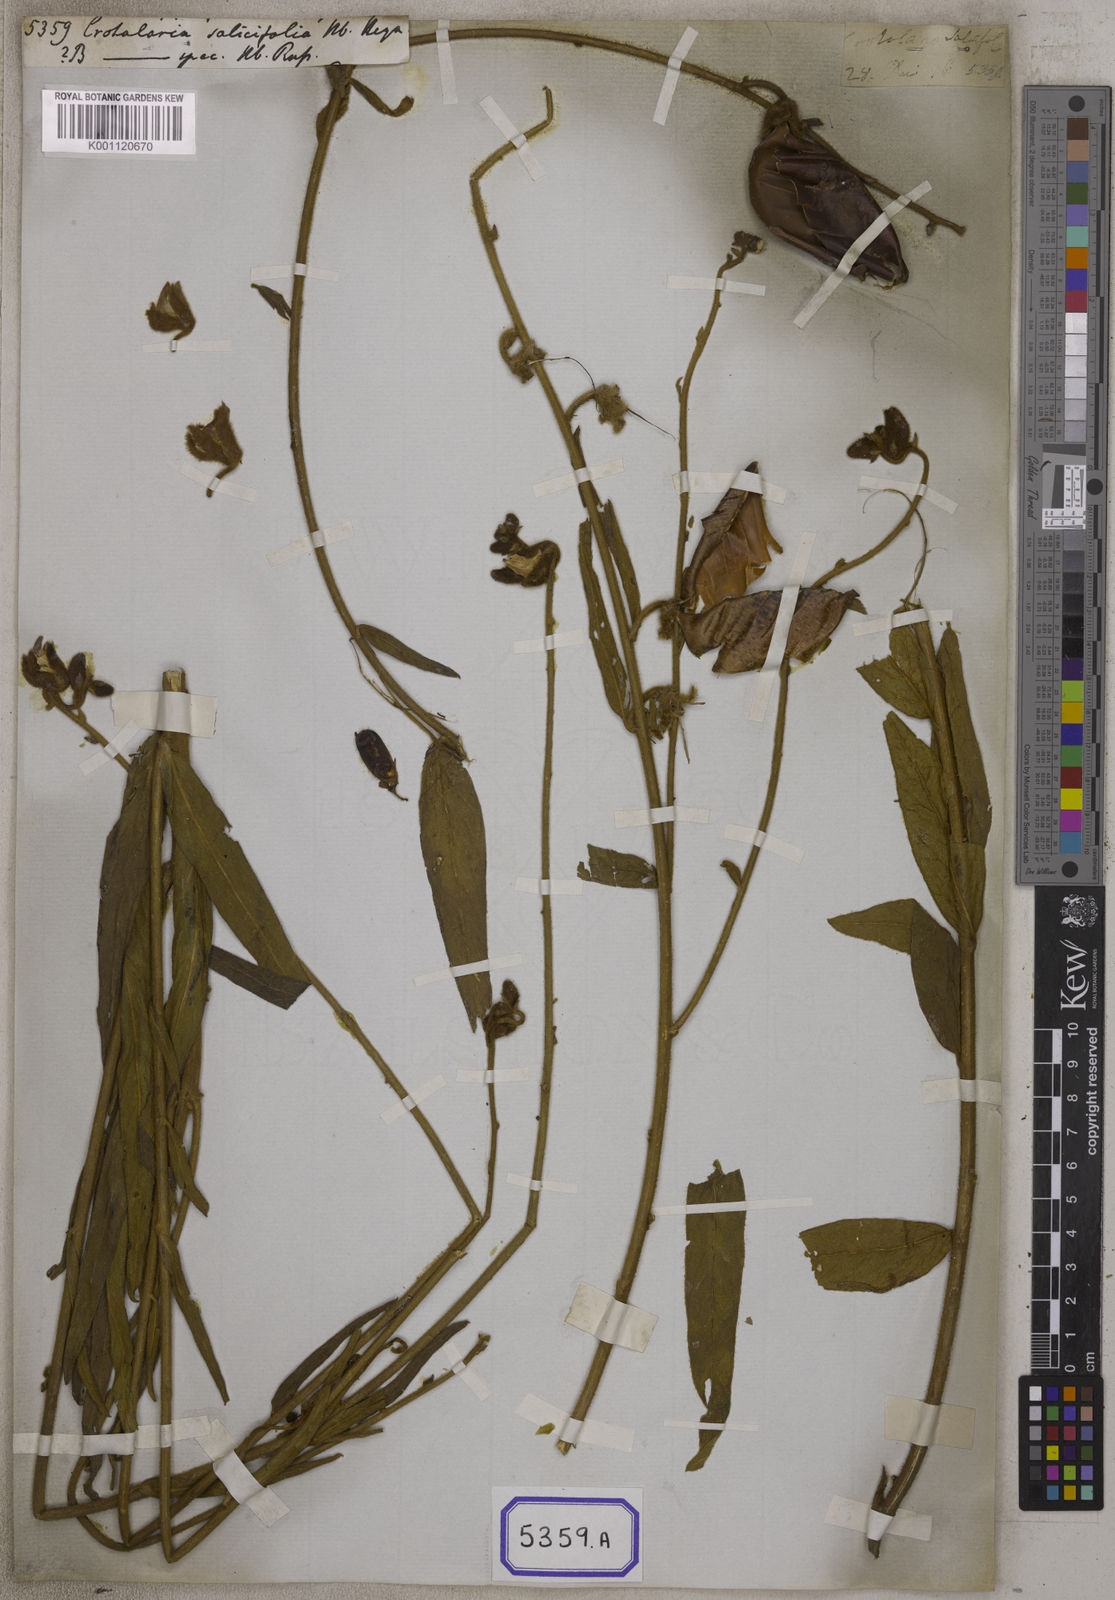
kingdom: Plantae
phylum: Tracheophyta
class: Magnoliopsida
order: Fabales
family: Fabaceae
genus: Crotalaria
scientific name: Crotalaria
